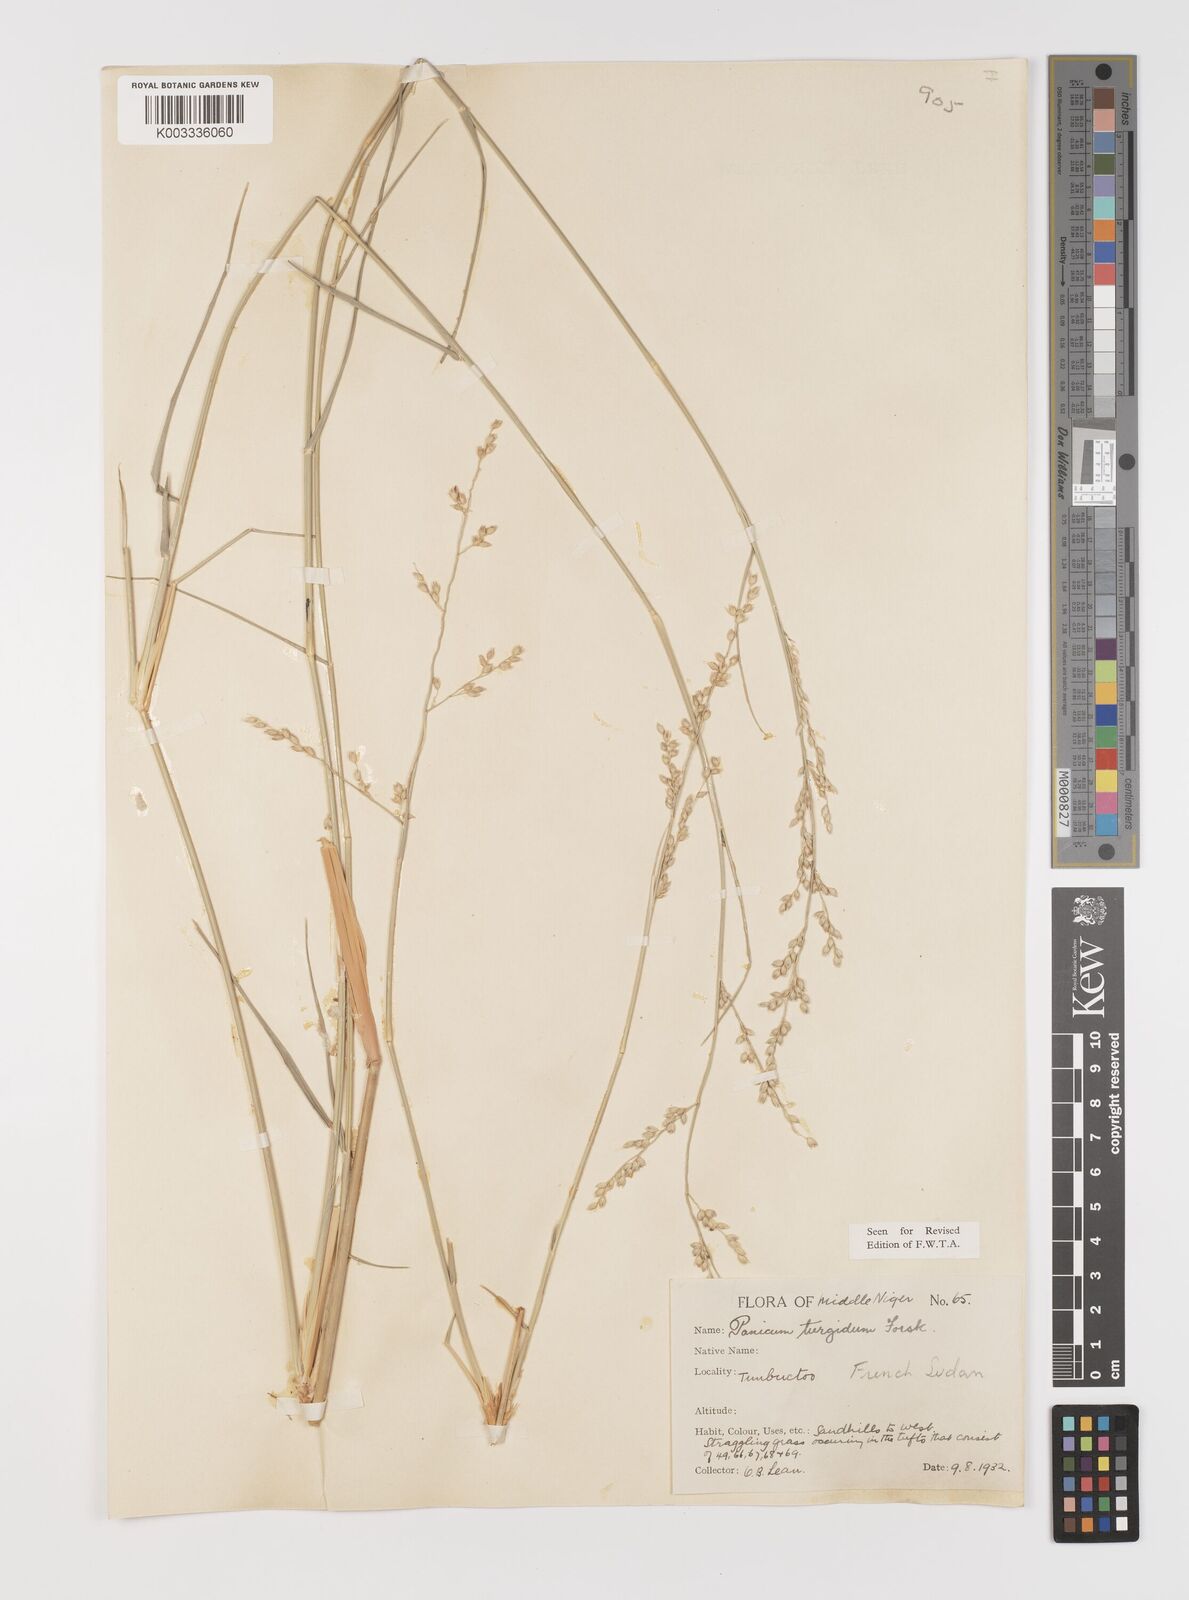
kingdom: Plantae
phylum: Tracheophyta
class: Liliopsida
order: Poales
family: Poaceae
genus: Panicum
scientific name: Panicum turgidum
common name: Desert grass
